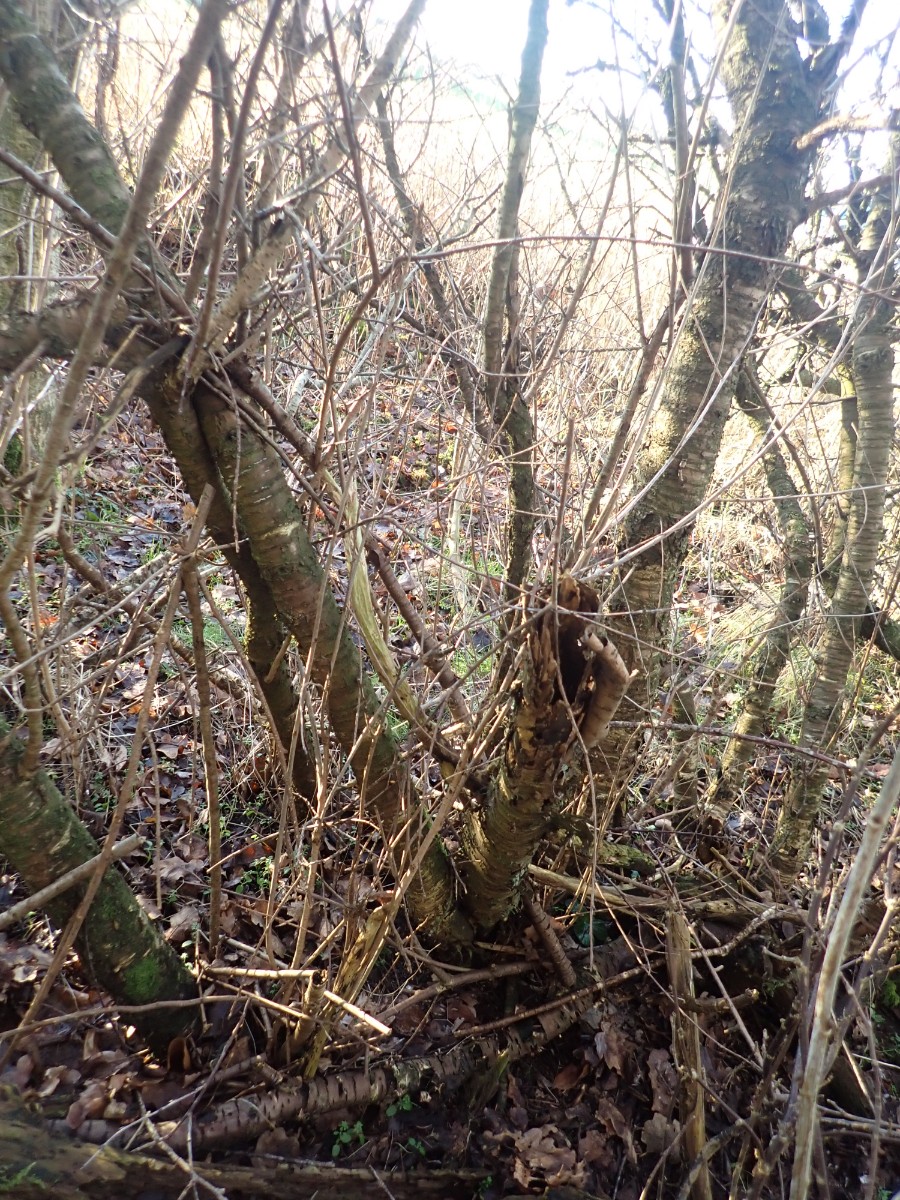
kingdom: Fungi
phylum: Basidiomycota
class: Dacrymycetes
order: Dacrymycetales
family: Dacrymycetaceae
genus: Dacrymyces
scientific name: Dacrymyces lacrymalis
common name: rynket tåresvamp
